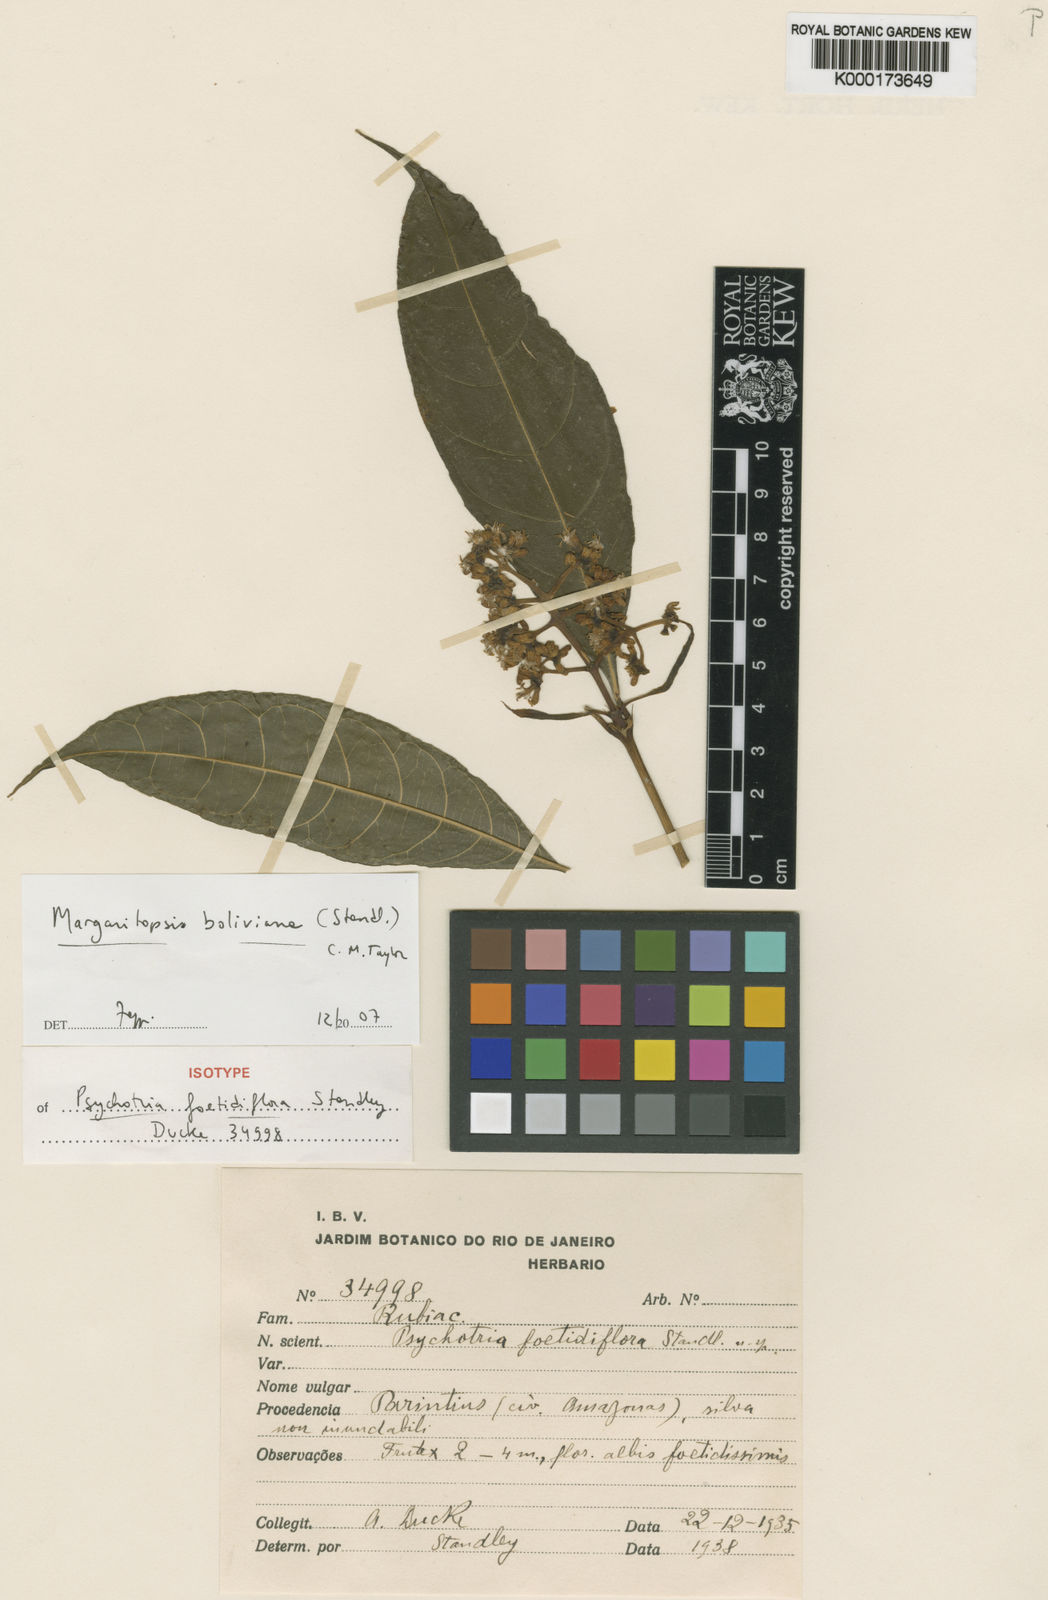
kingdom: Plantae
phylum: Tracheophyta
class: Magnoliopsida
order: Gentianales
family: Rubiaceae
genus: Eumachia
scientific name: Eumachia boliviana
